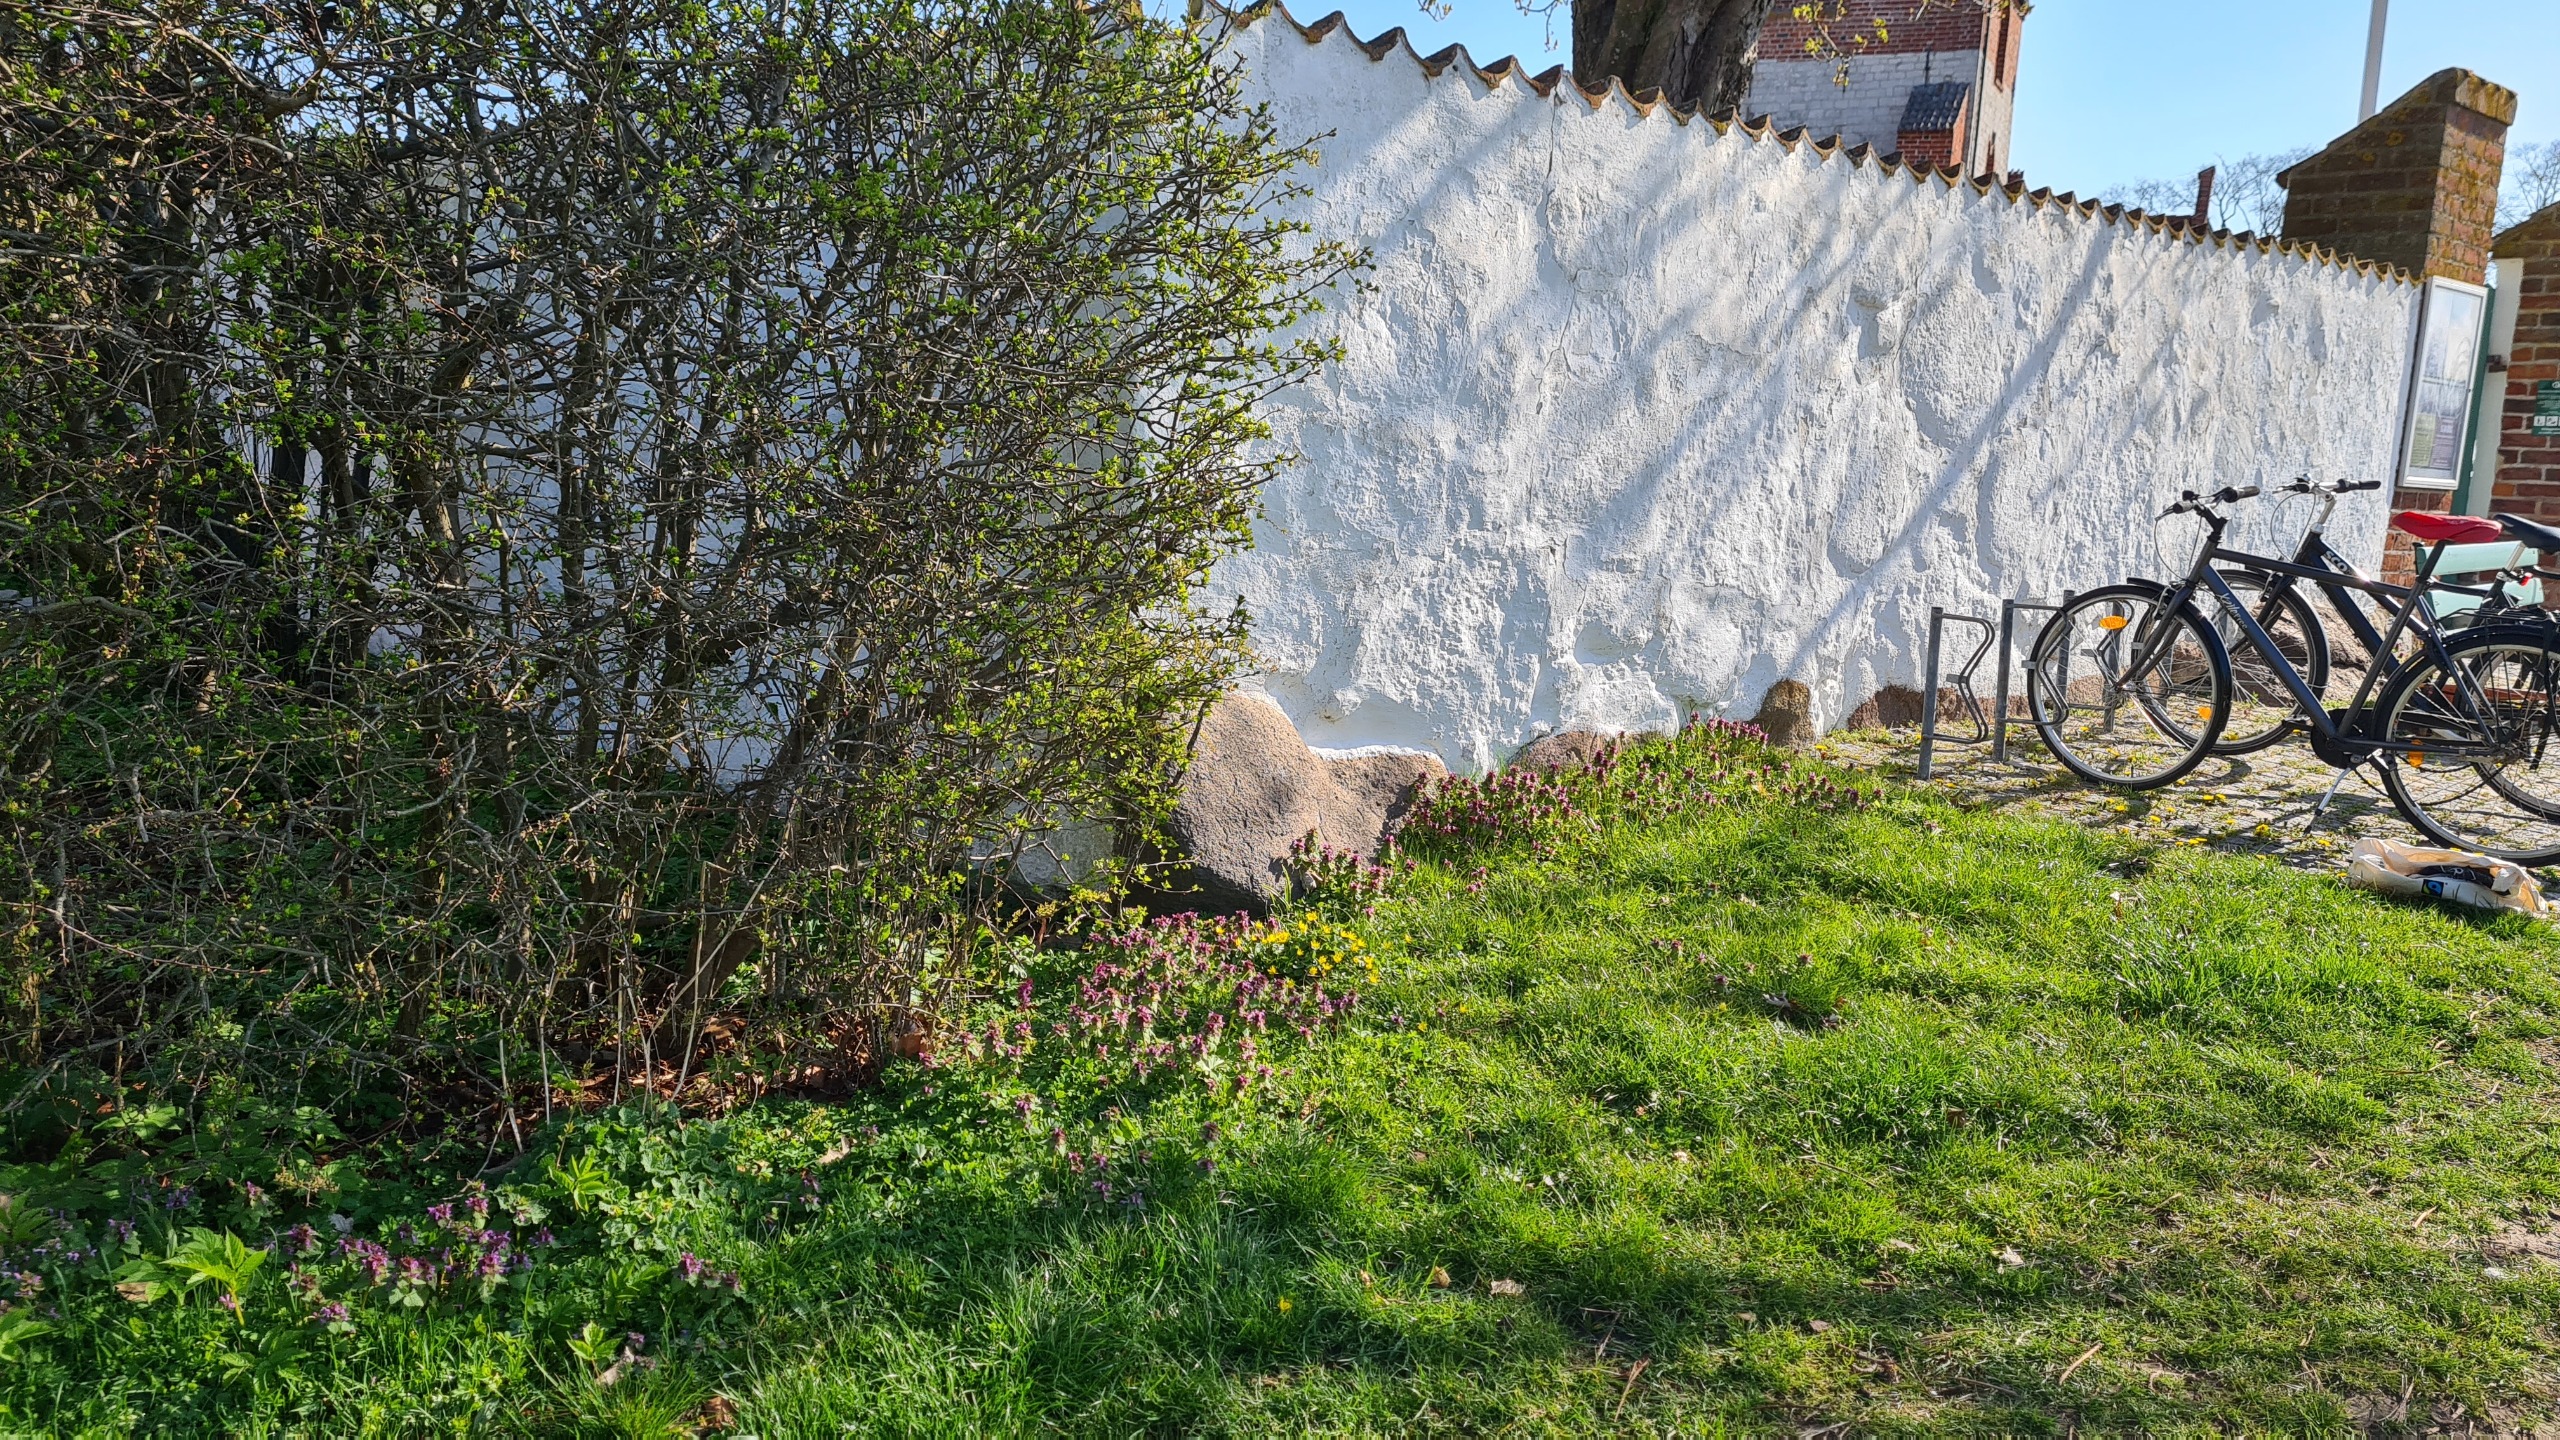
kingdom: Plantae
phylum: Tracheophyta
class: Magnoliopsida
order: Ranunculales
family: Papaveraceae
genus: Corydalis
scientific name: Corydalis pumila
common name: Finger-lærkespore
